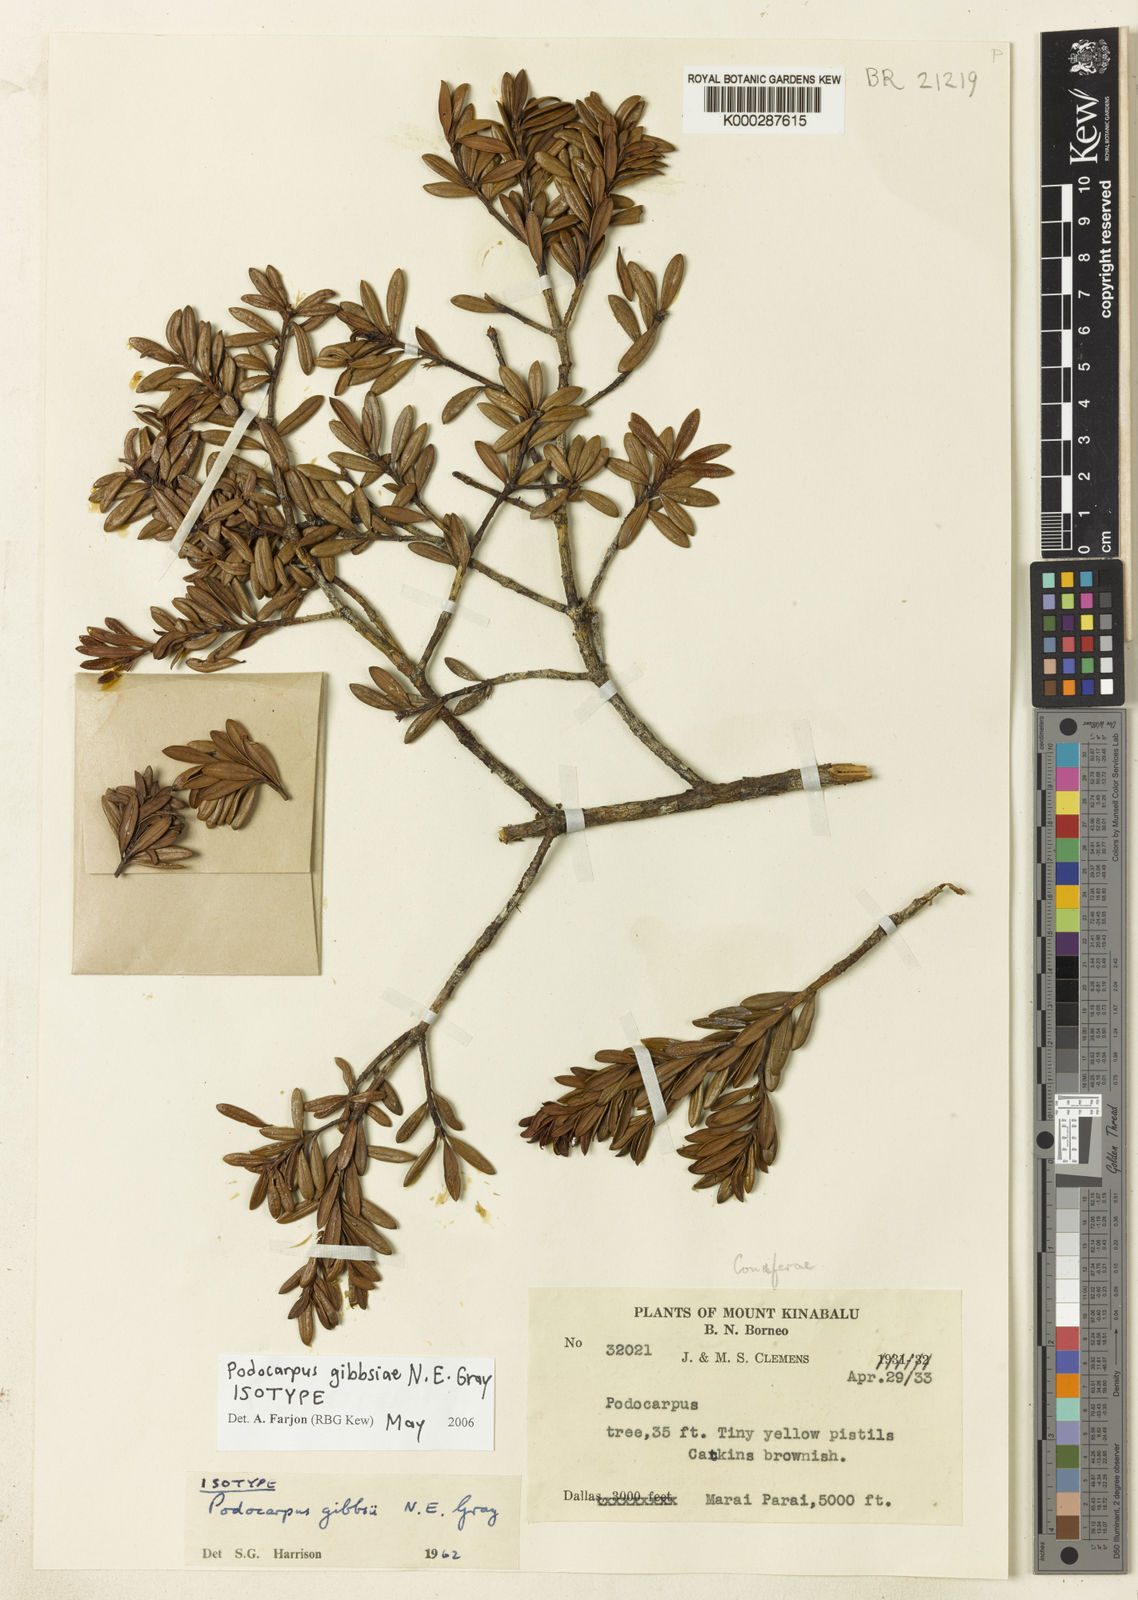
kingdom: Plantae
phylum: Tracheophyta
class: Pinopsida
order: Pinales
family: Podocarpaceae
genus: Podocarpus
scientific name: Podocarpus gibbsiae
